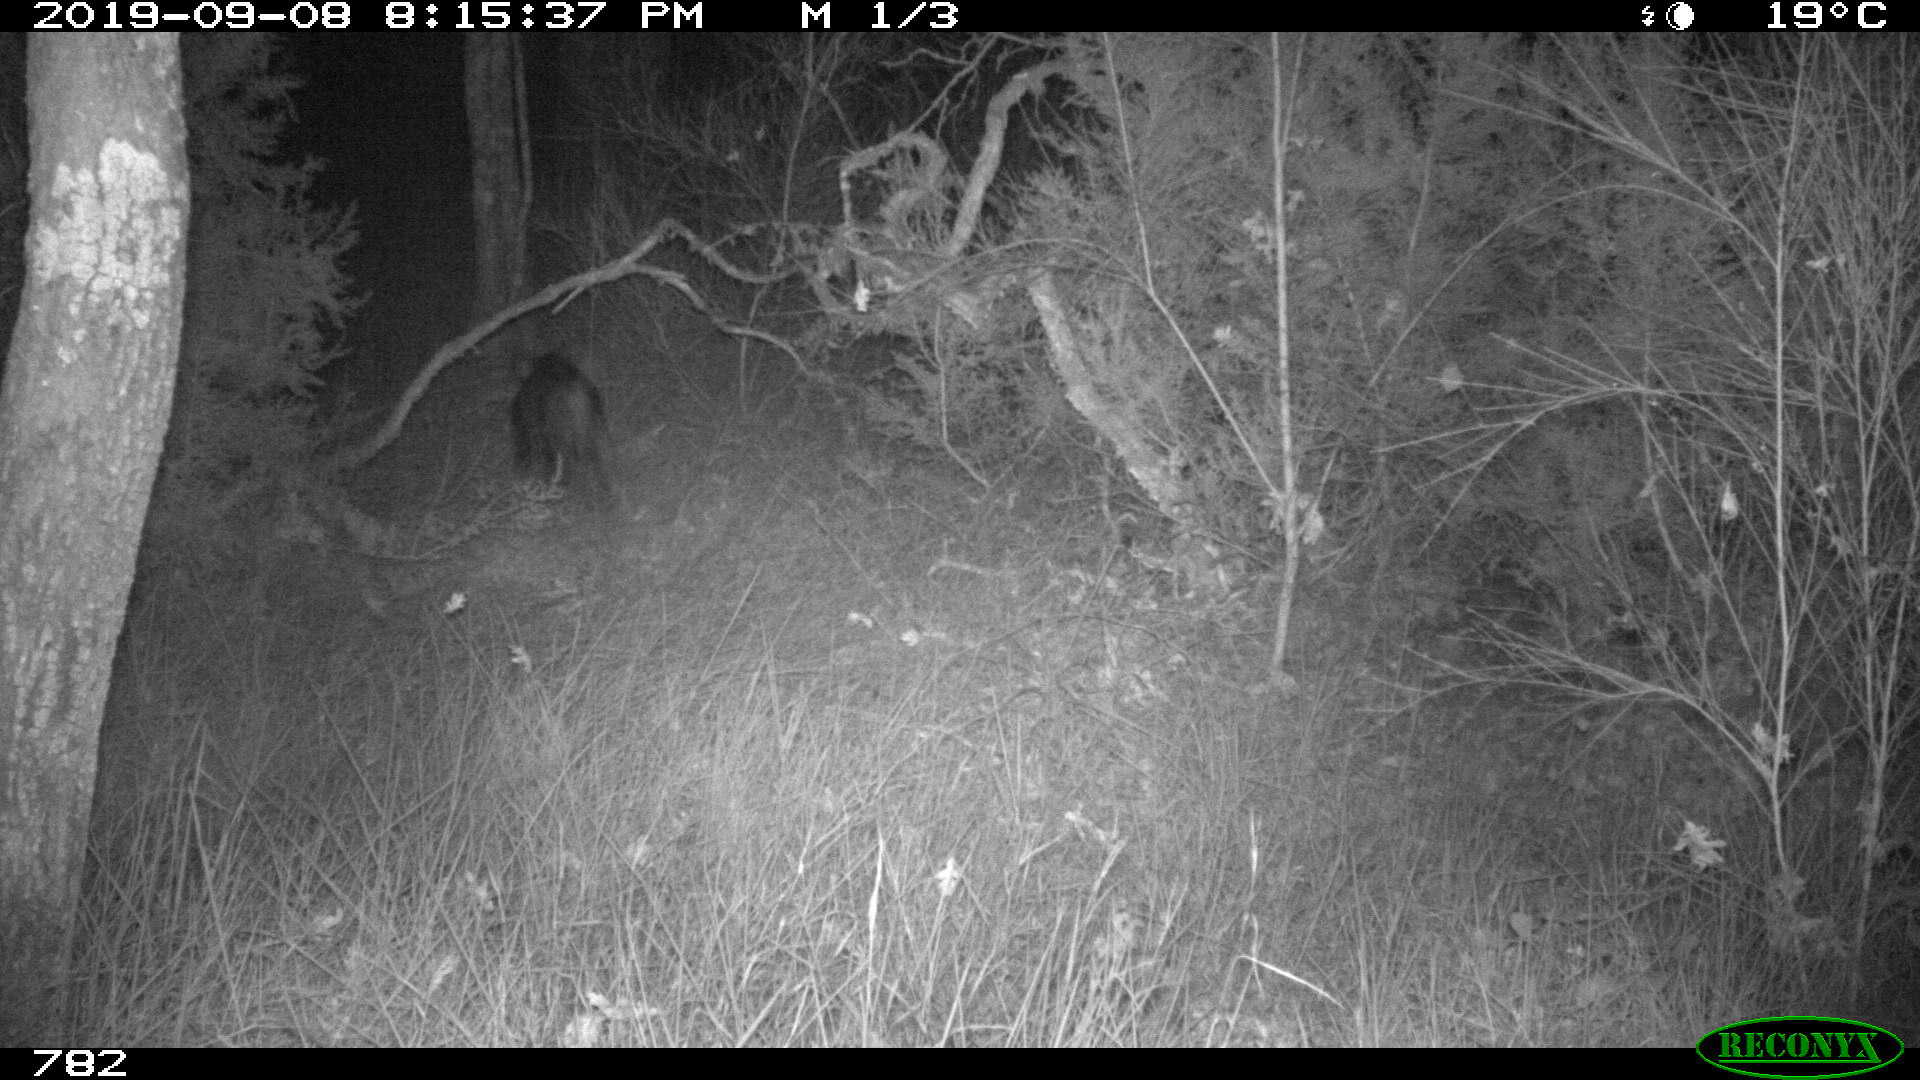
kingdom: Animalia
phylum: Chordata
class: Mammalia
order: Artiodactyla
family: Suidae
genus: Sus
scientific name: Sus scrofa
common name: Wild boar
